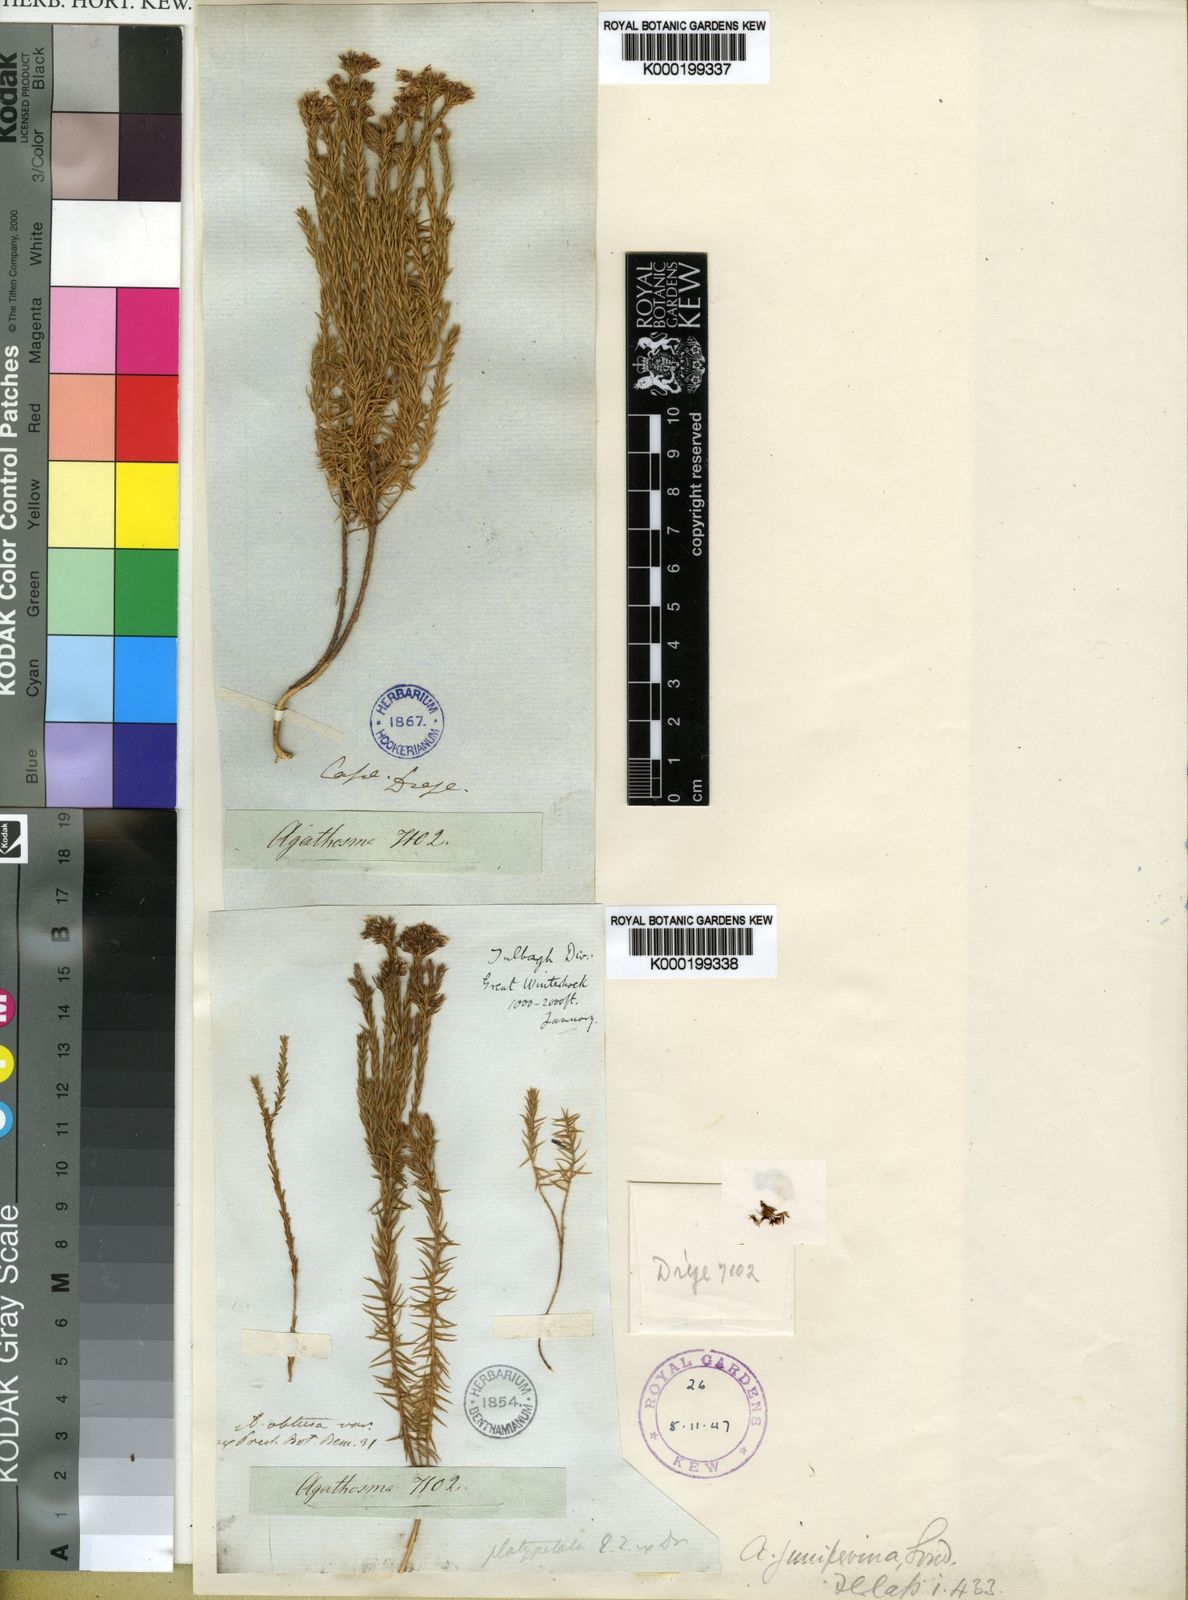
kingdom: Plantae
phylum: Tracheophyta
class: Magnoliopsida
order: Sapindales
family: Rutaceae
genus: Agathosma
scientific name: Agathosma capensis
